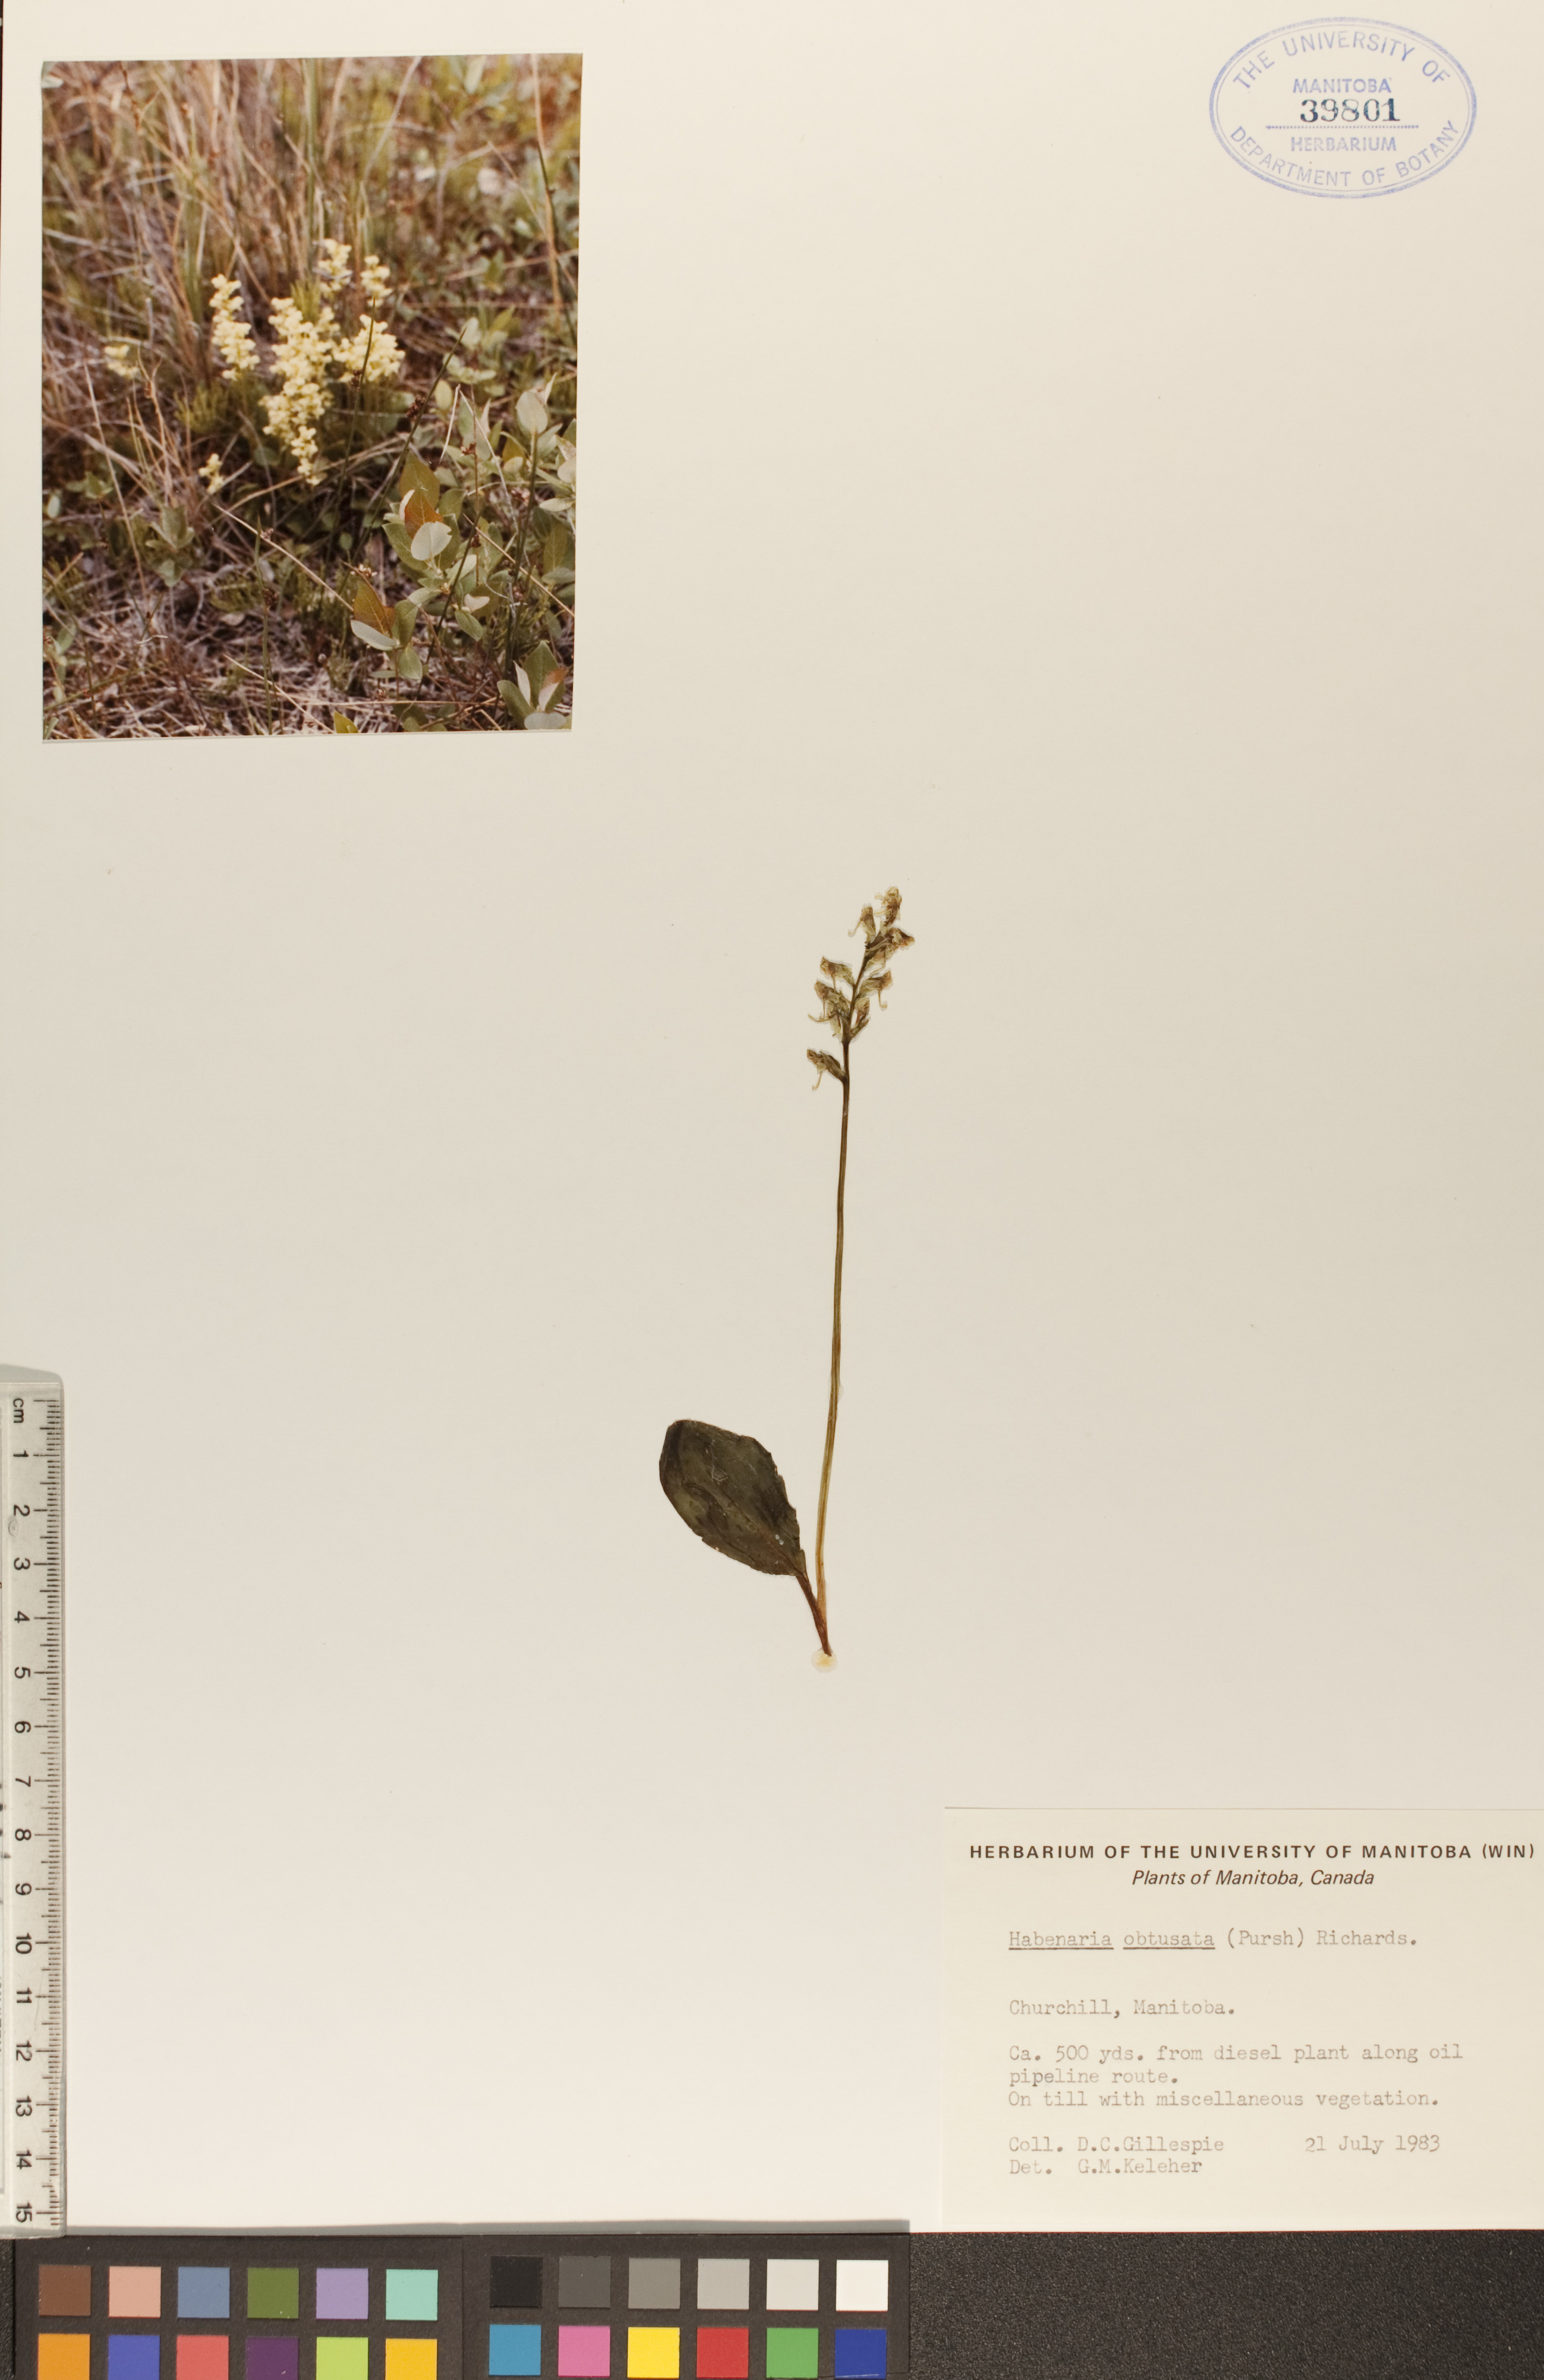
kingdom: Plantae
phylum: Tracheophyta
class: Liliopsida
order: Asparagales
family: Orchidaceae
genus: Platanthera
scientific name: Platanthera obtusata
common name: Blunt bog orchid
